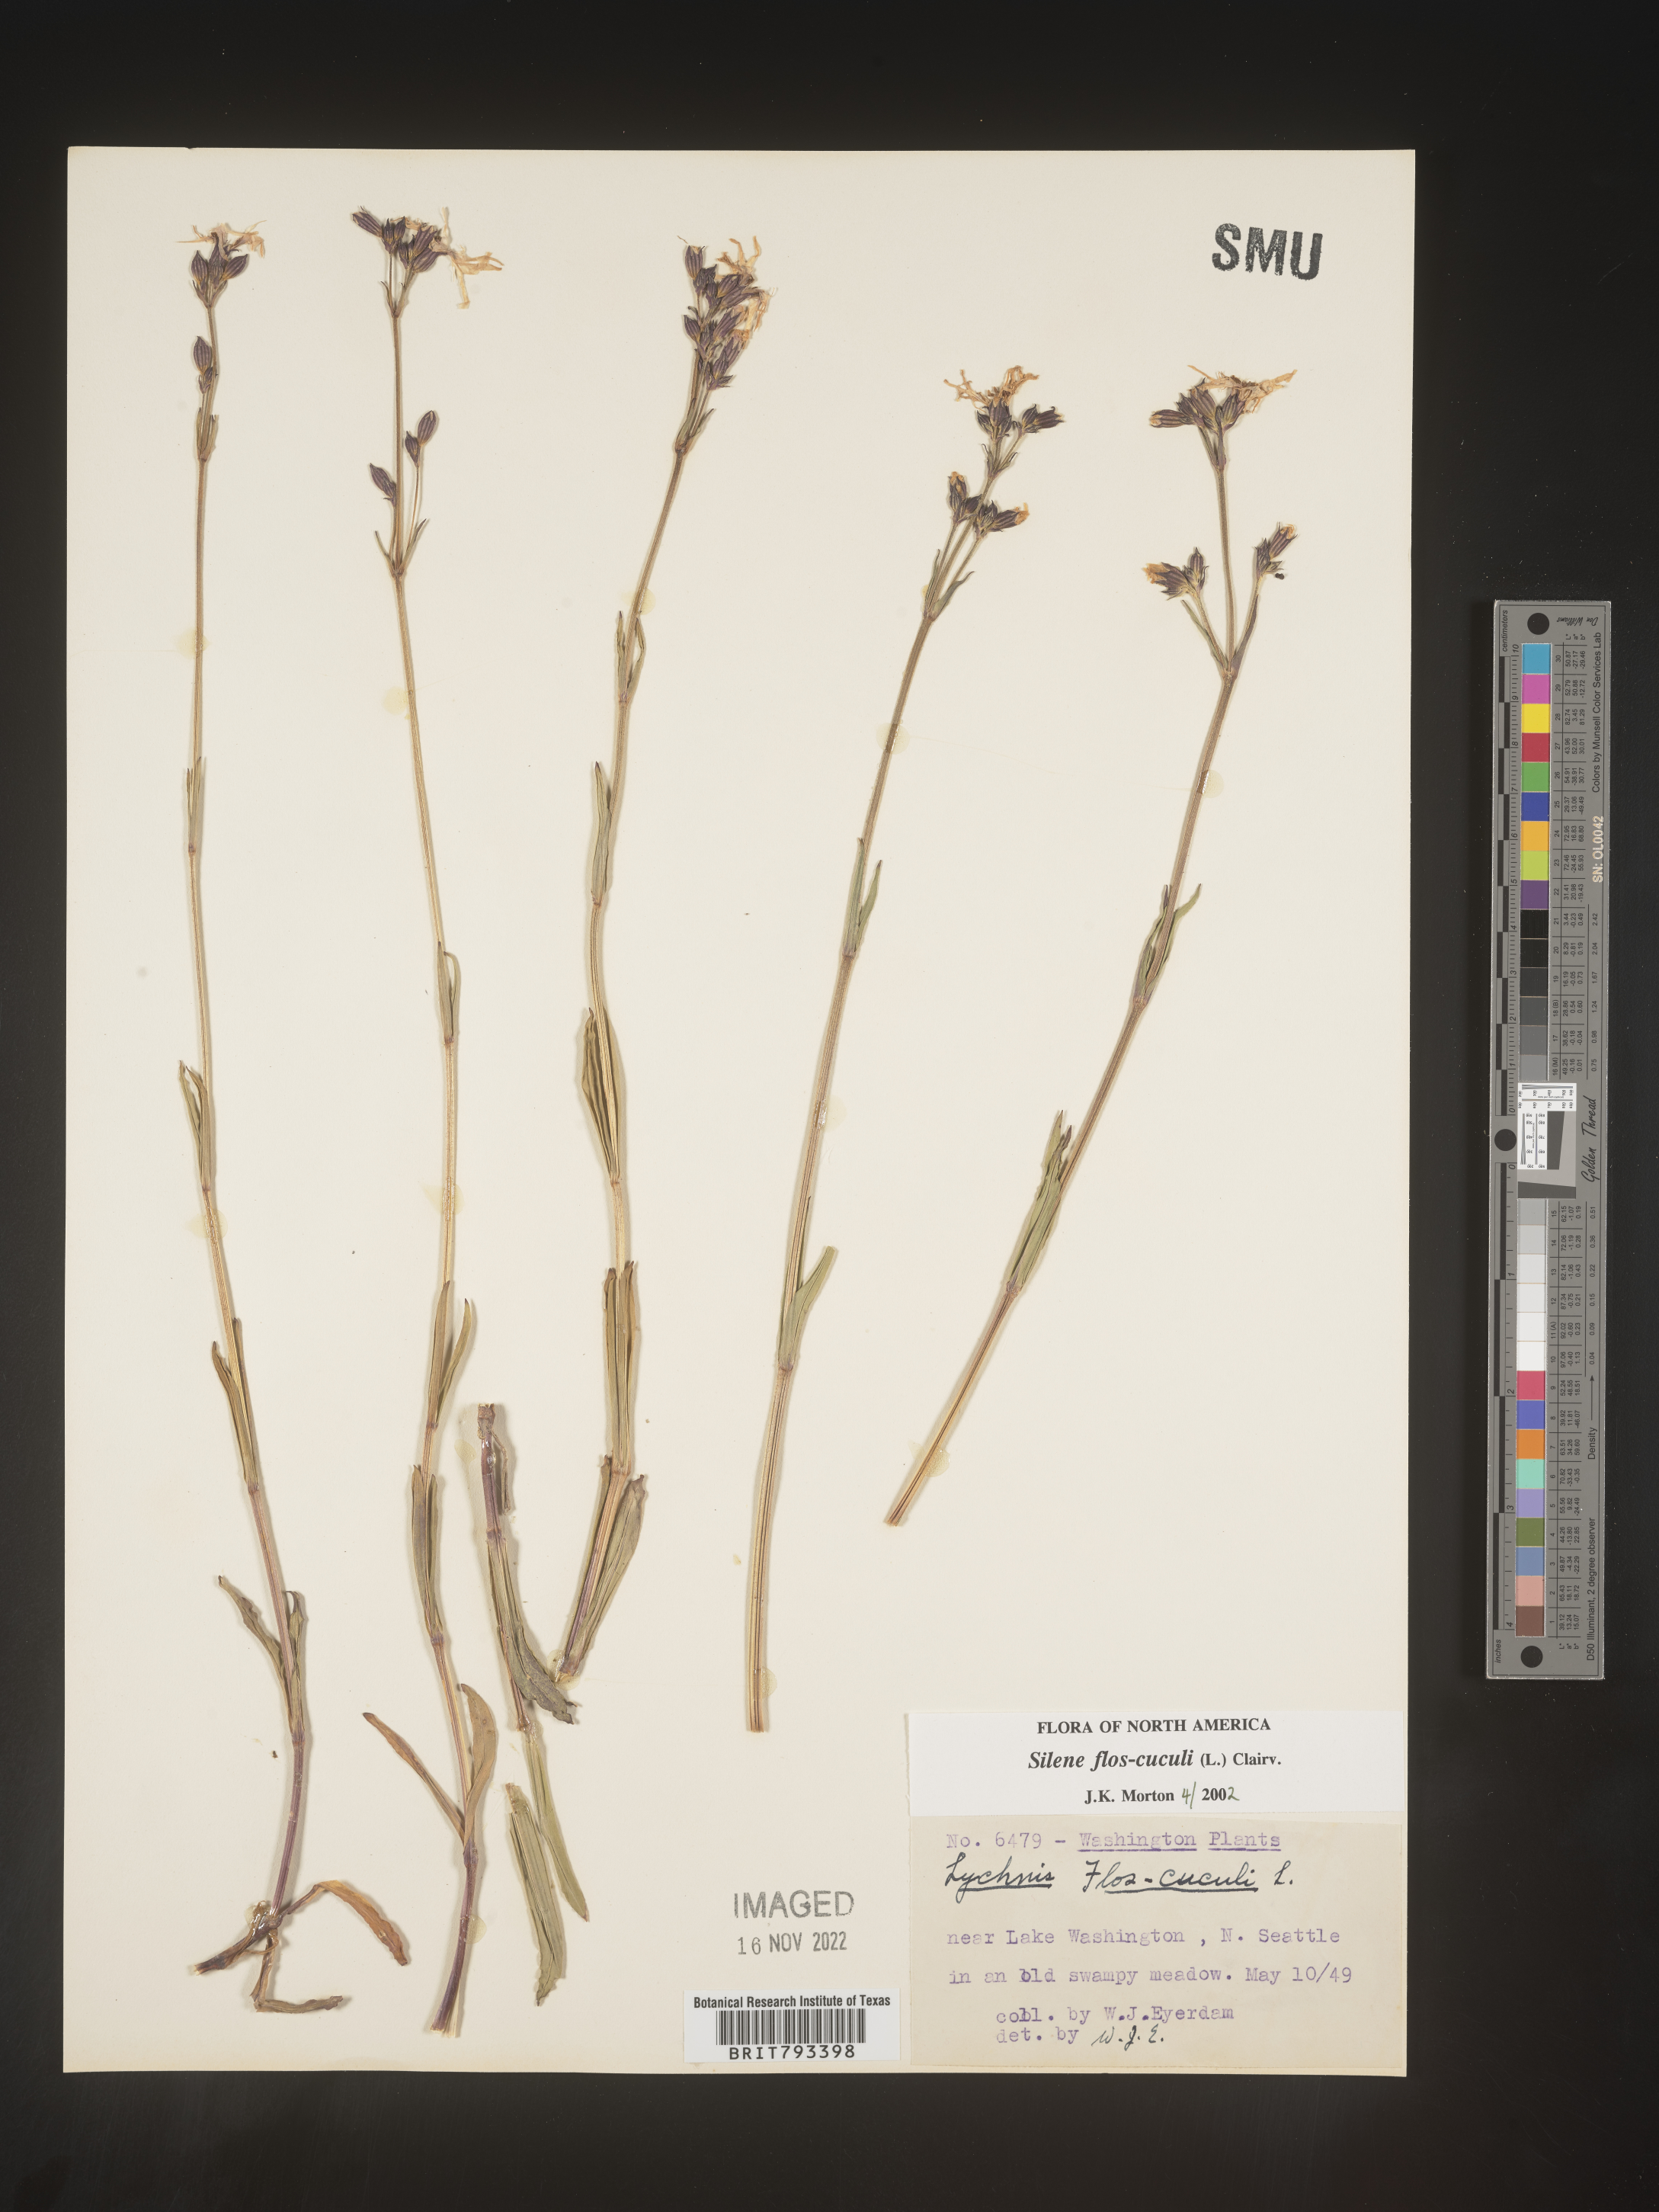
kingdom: Plantae
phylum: Tracheophyta
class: Magnoliopsida
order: Caryophyllales
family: Caryophyllaceae
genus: Silene
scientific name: Silene flos-cuculi
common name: Ragged-robin
